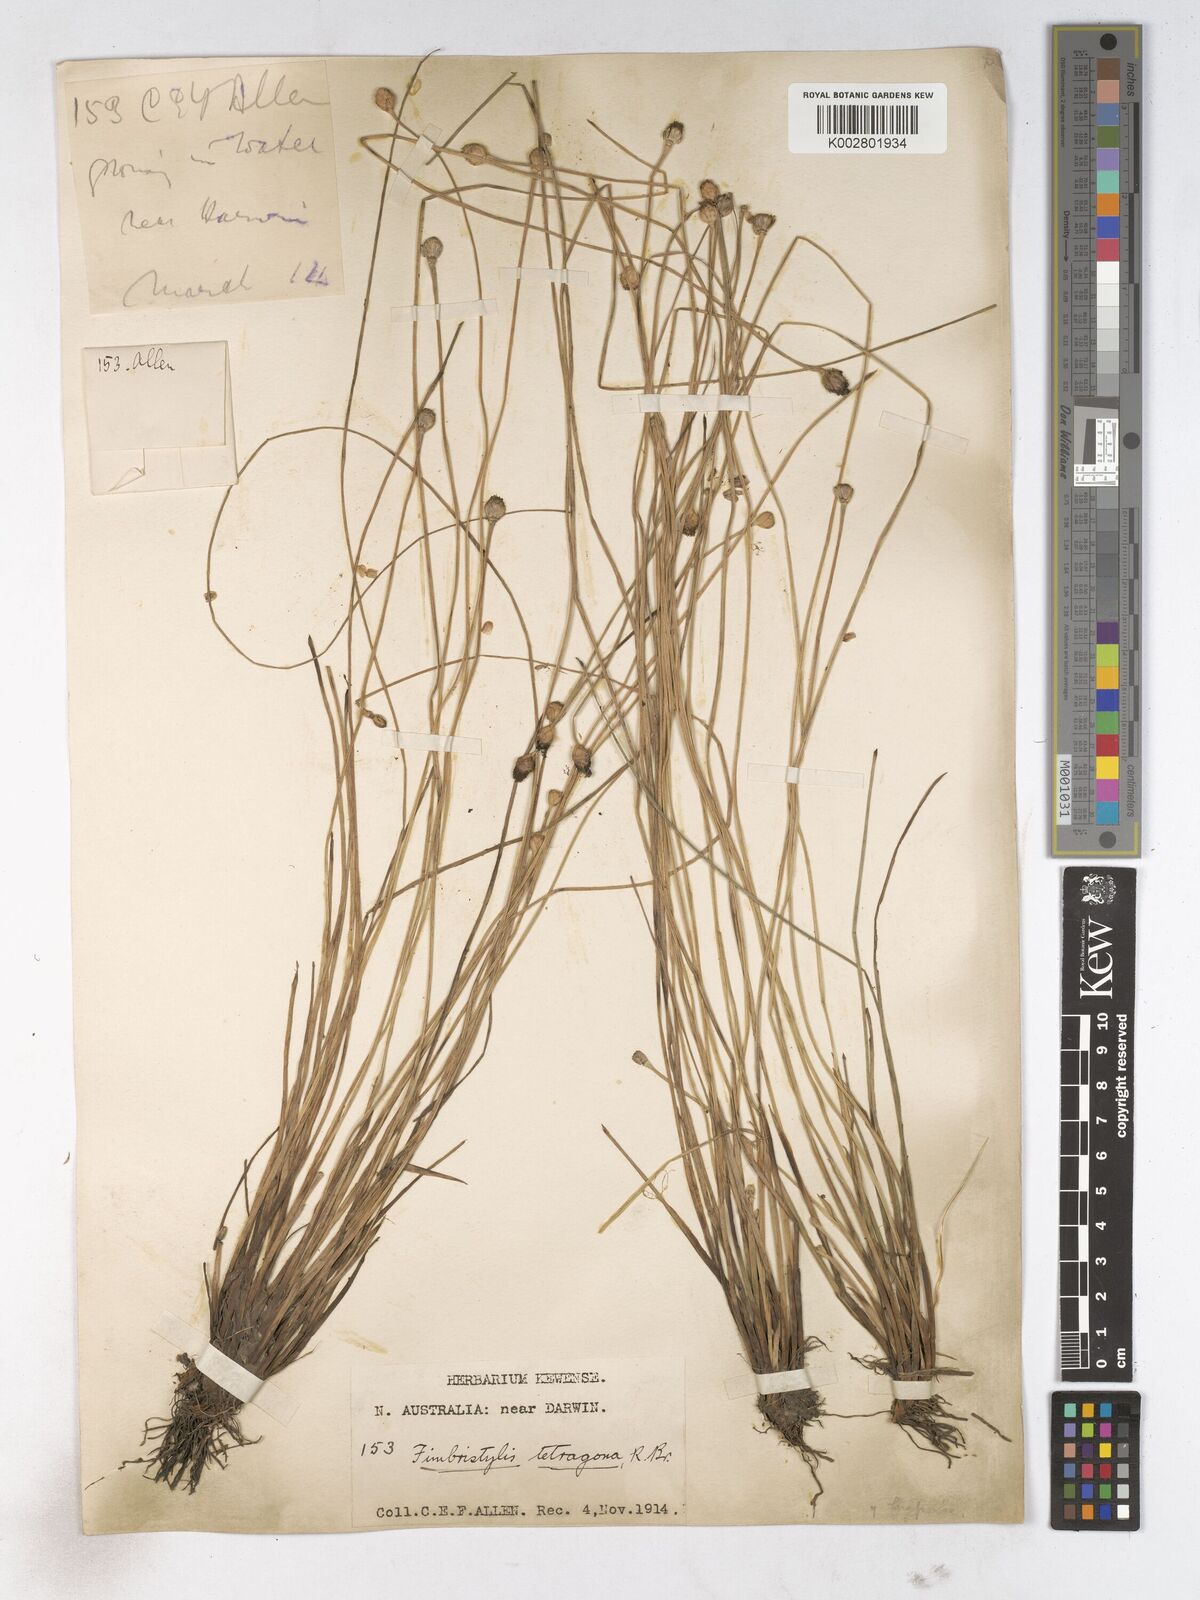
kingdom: Plantae
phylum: Tracheophyta
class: Liliopsida
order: Poales
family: Cyperaceae
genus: Fimbristylis
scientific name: Fimbristylis tetragona
